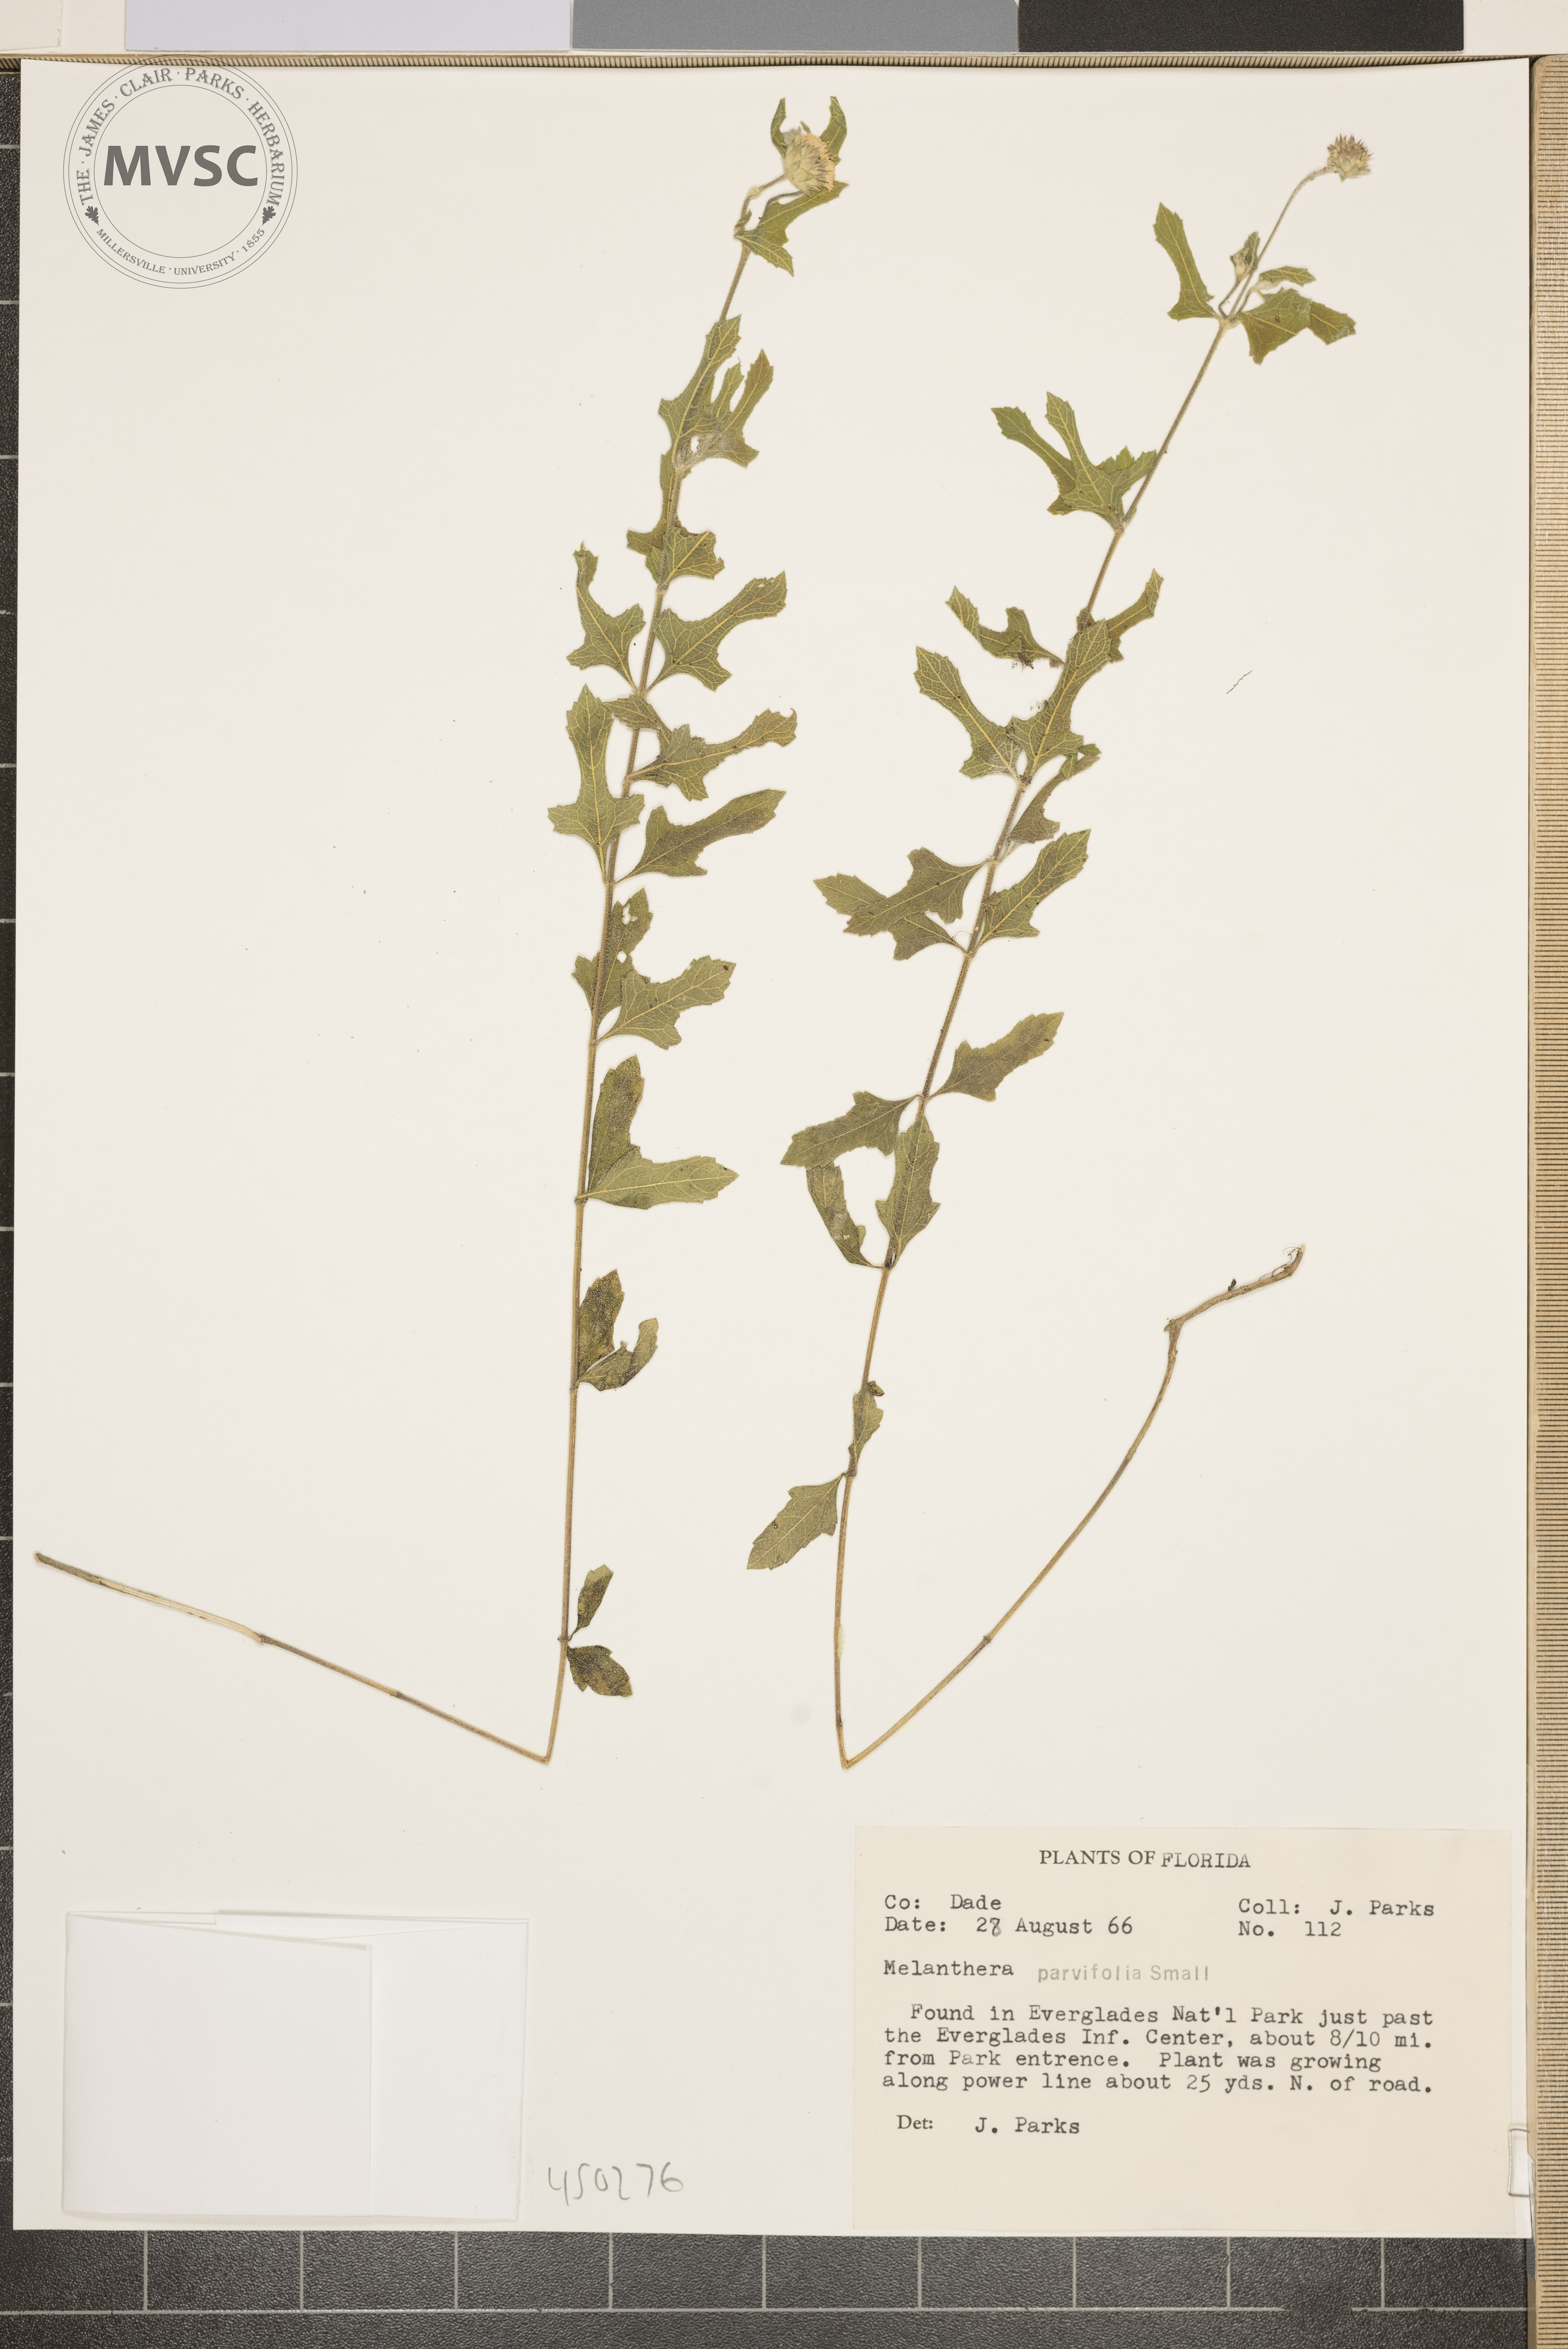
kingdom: Plantae
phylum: Tracheophyta
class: Magnoliopsida
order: Asterales
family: Asteraceae
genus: Melanthera
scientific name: Melanthera parvifolia
